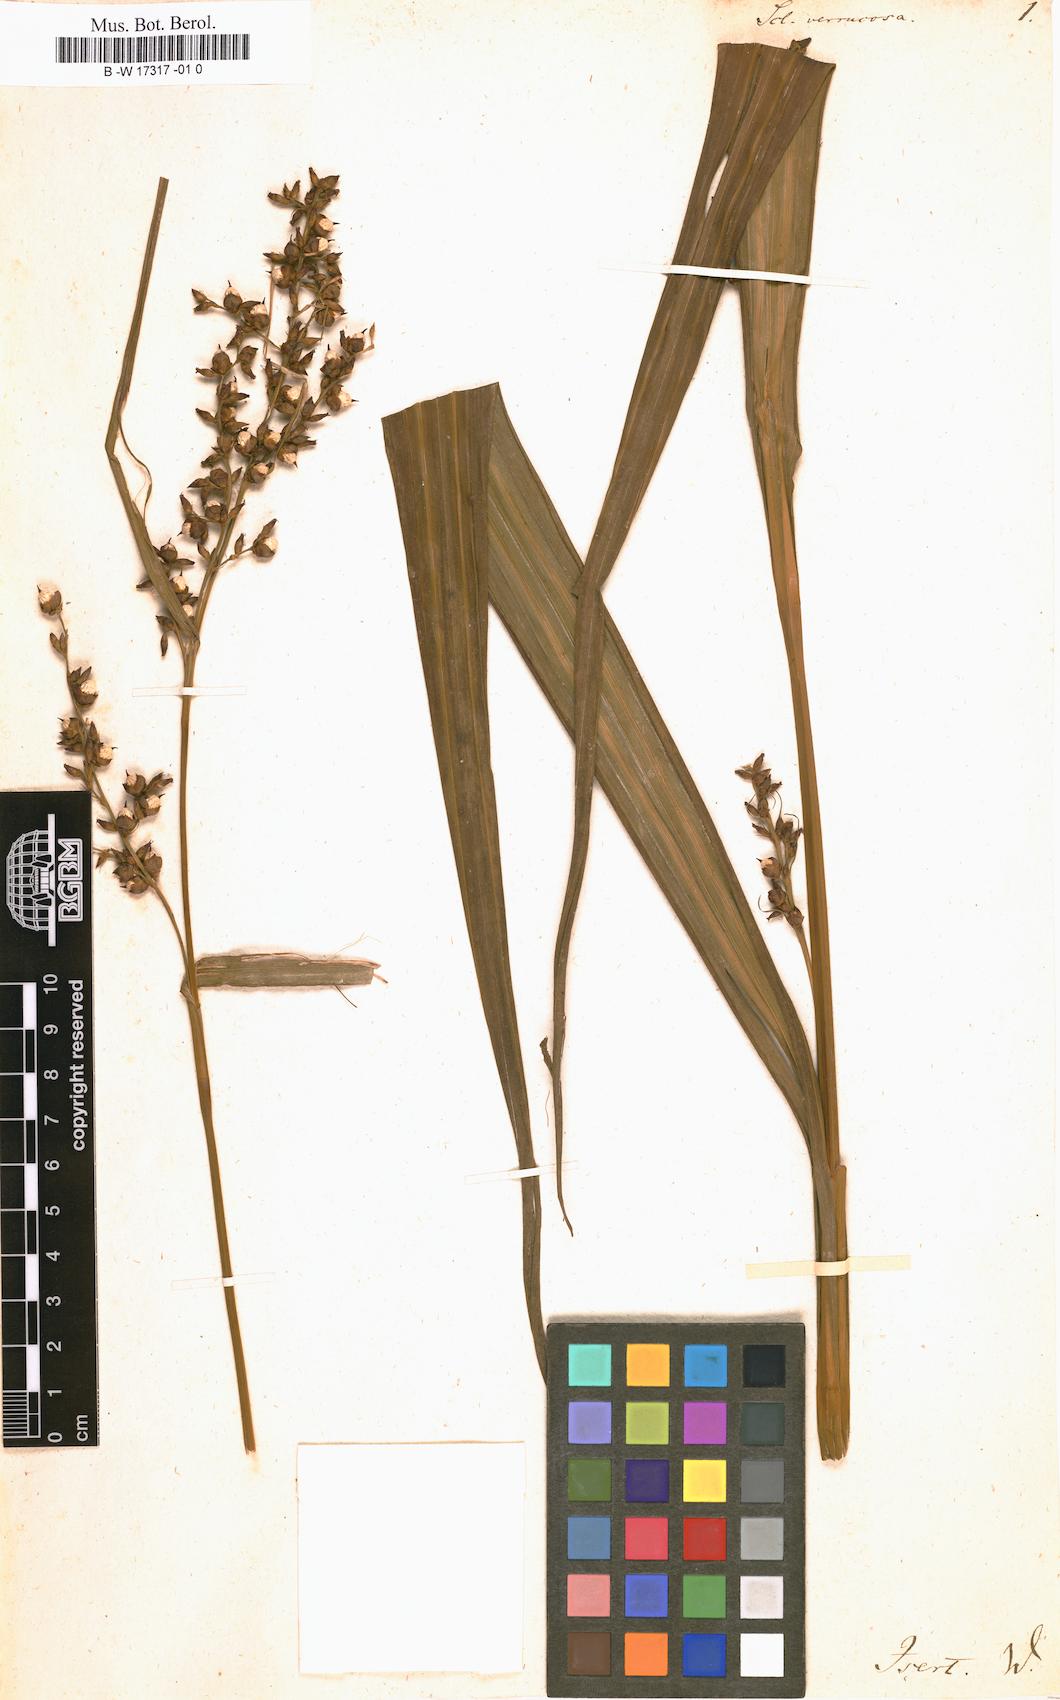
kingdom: Plantae
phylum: Tracheophyta
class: Liliopsida
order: Poales
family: Cyperaceae
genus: Scleria
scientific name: Scleria verrucosa
